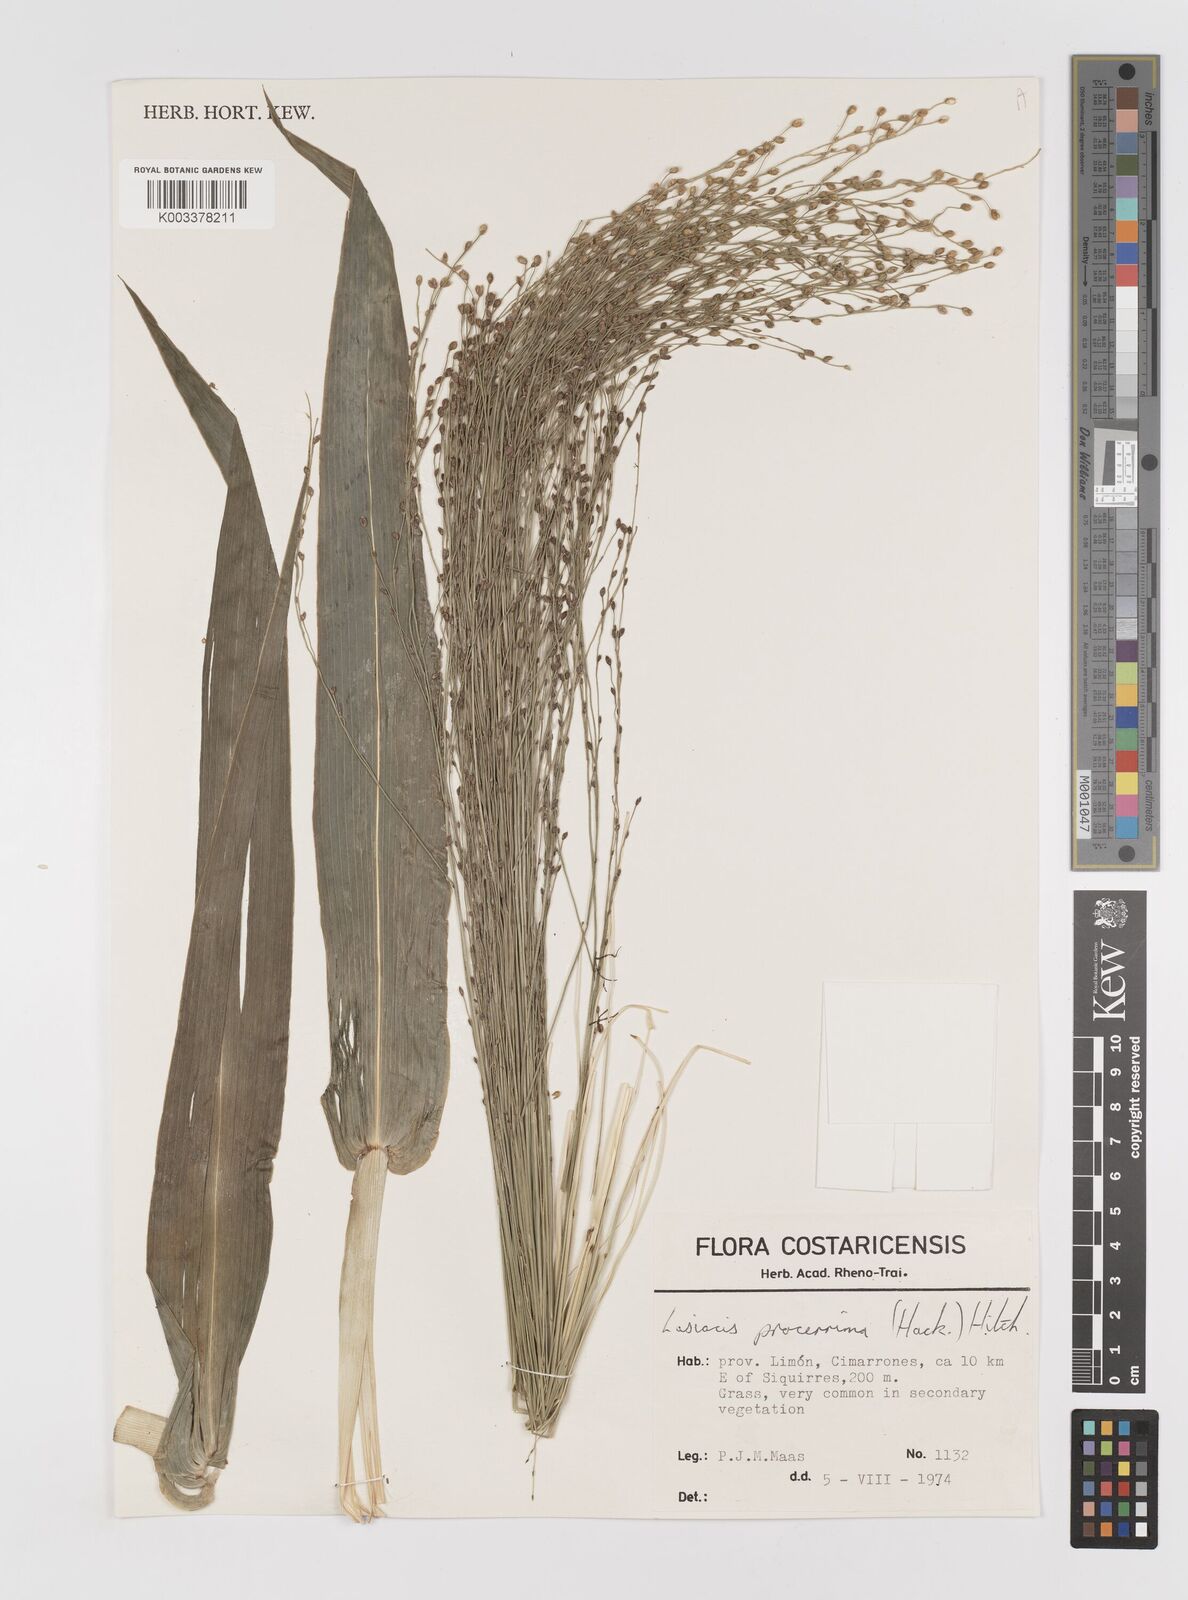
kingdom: Plantae
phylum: Tracheophyta
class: Liliopsida
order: Poales
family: Poaceae
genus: Lasiacis
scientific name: Lasiacis procerrima
